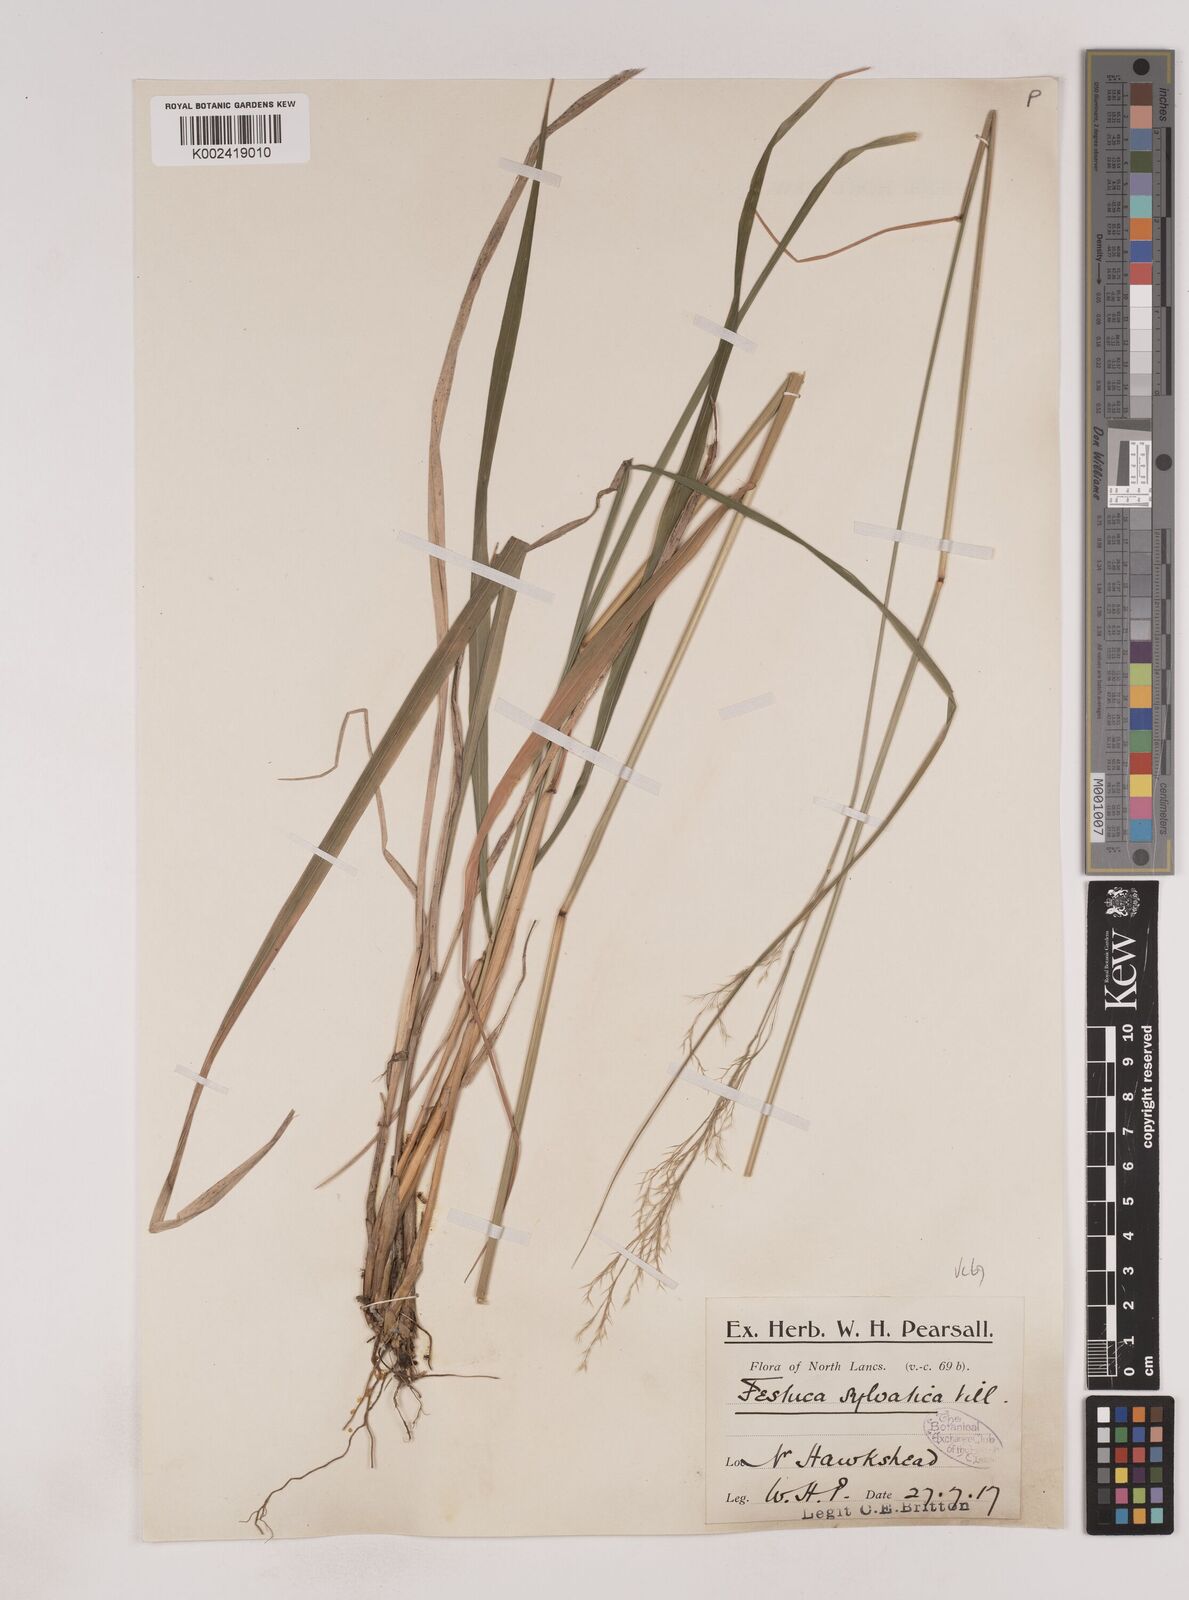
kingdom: Plantae
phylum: Tracheophyta
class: Liliopsida
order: Poales
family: Poaceae
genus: Festuca
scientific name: Festuca drymeja
